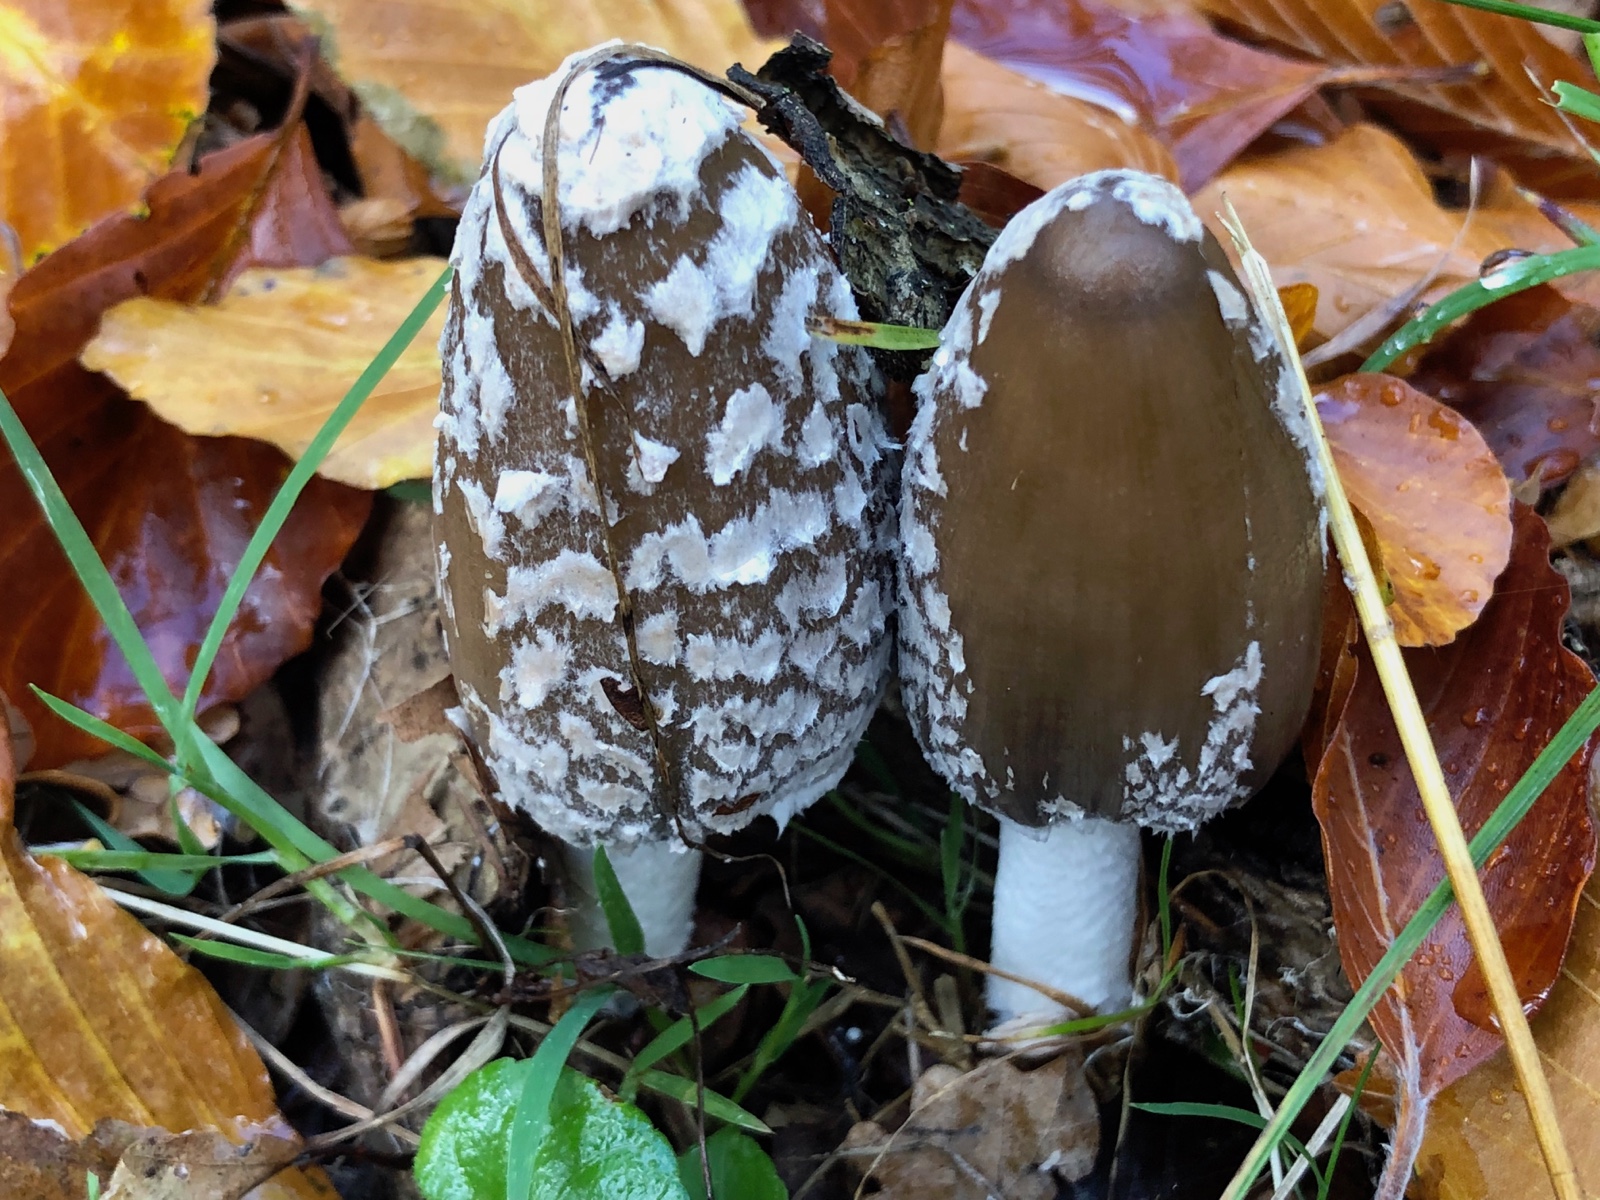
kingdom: Fungi
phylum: Basidiomycota
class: Agaricomycetes
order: Agaricales
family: Psathyrellaceae
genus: Coprinopsis
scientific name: Coprinopsis picacea
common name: skade-blækhat
